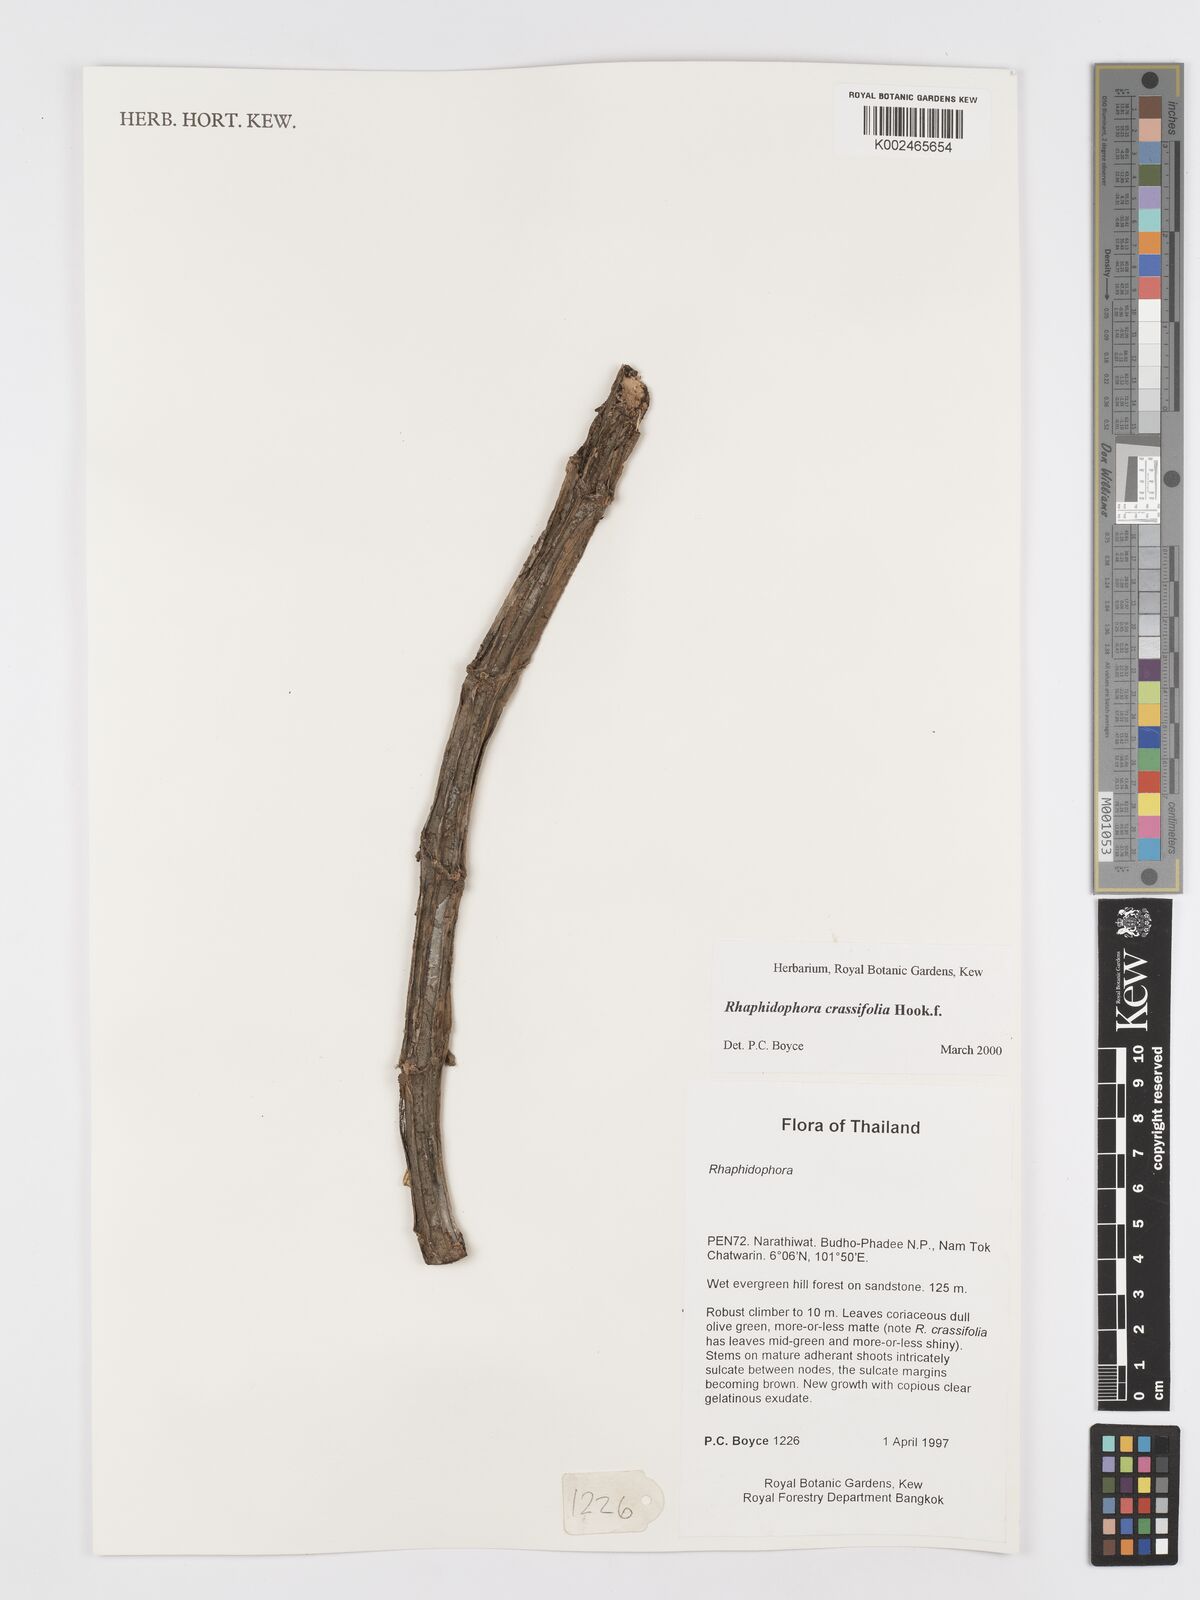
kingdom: Plantae
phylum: Tracheophyta
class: Liliopsida
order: Alismatales
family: Araceae
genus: Rhaphidophora
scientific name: Rhaphidophora crassifolia
